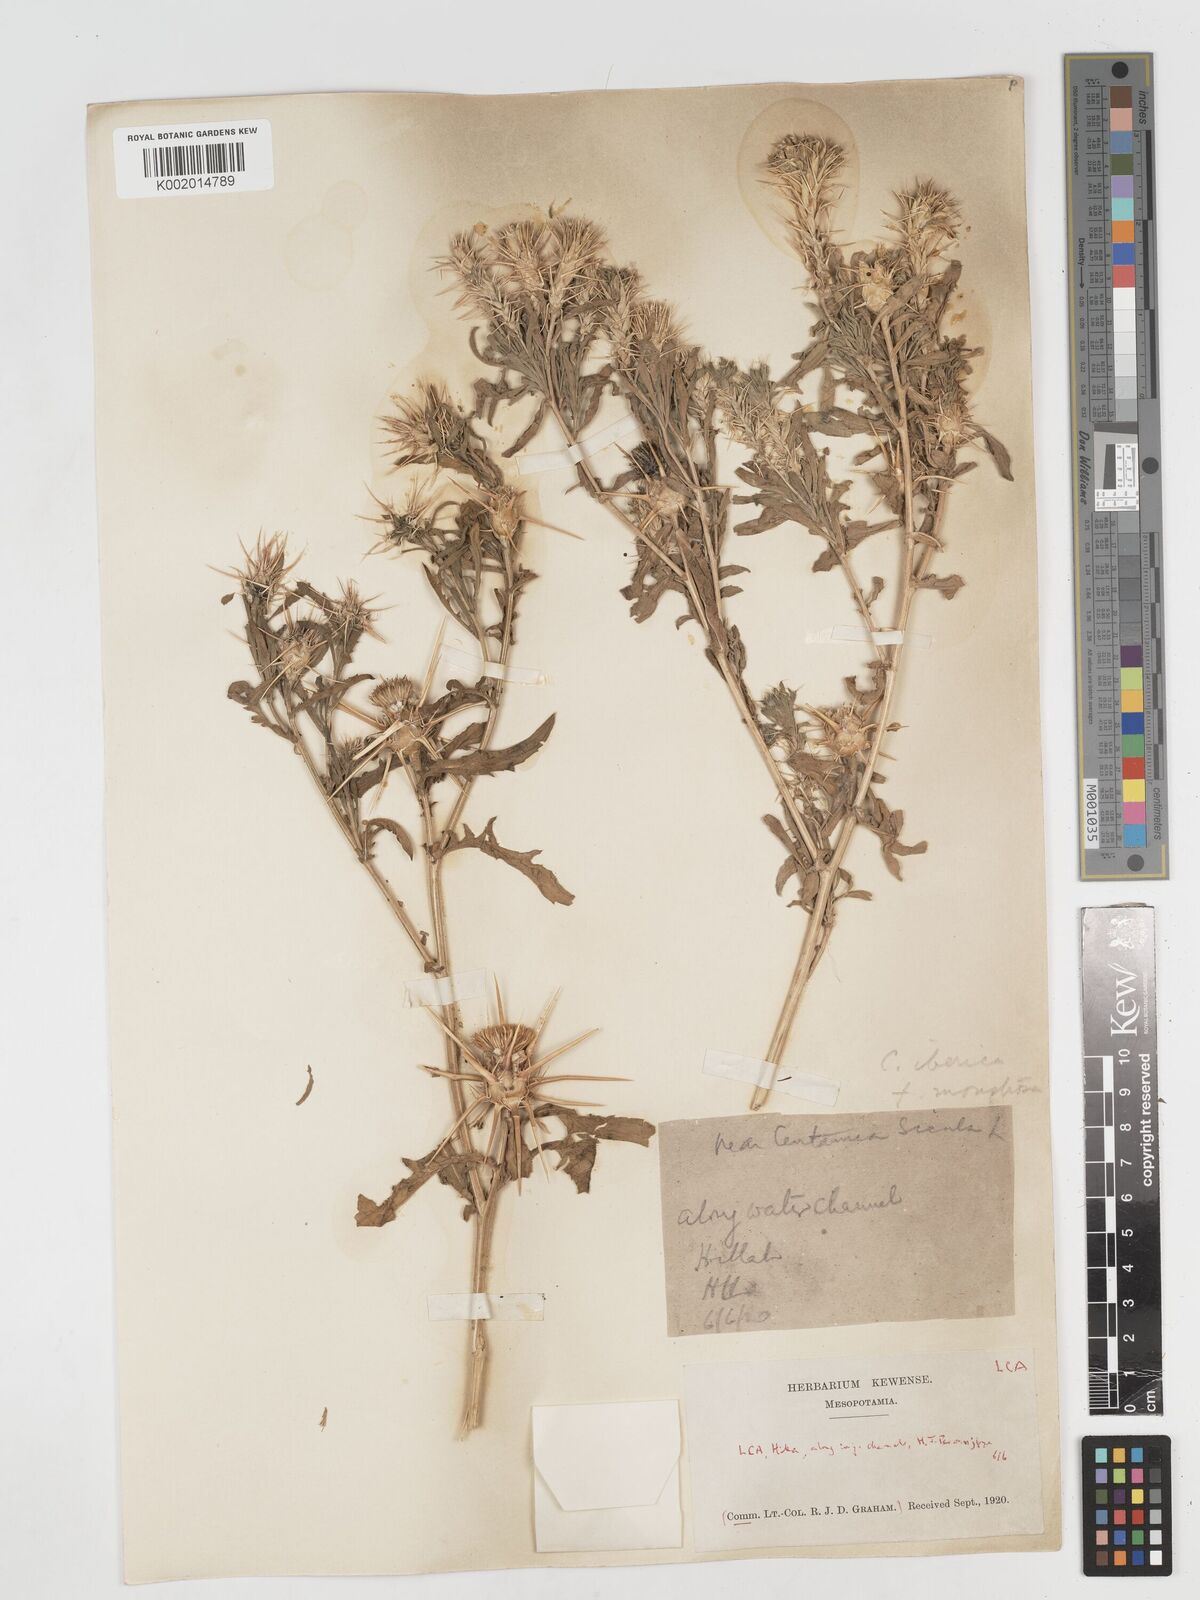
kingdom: Plantae
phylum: Tracheophyta
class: Magnoliopsida
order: Asterales
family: Asteraceae
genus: Centaurea
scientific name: Centaurea iberica
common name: Iberian knapweed
